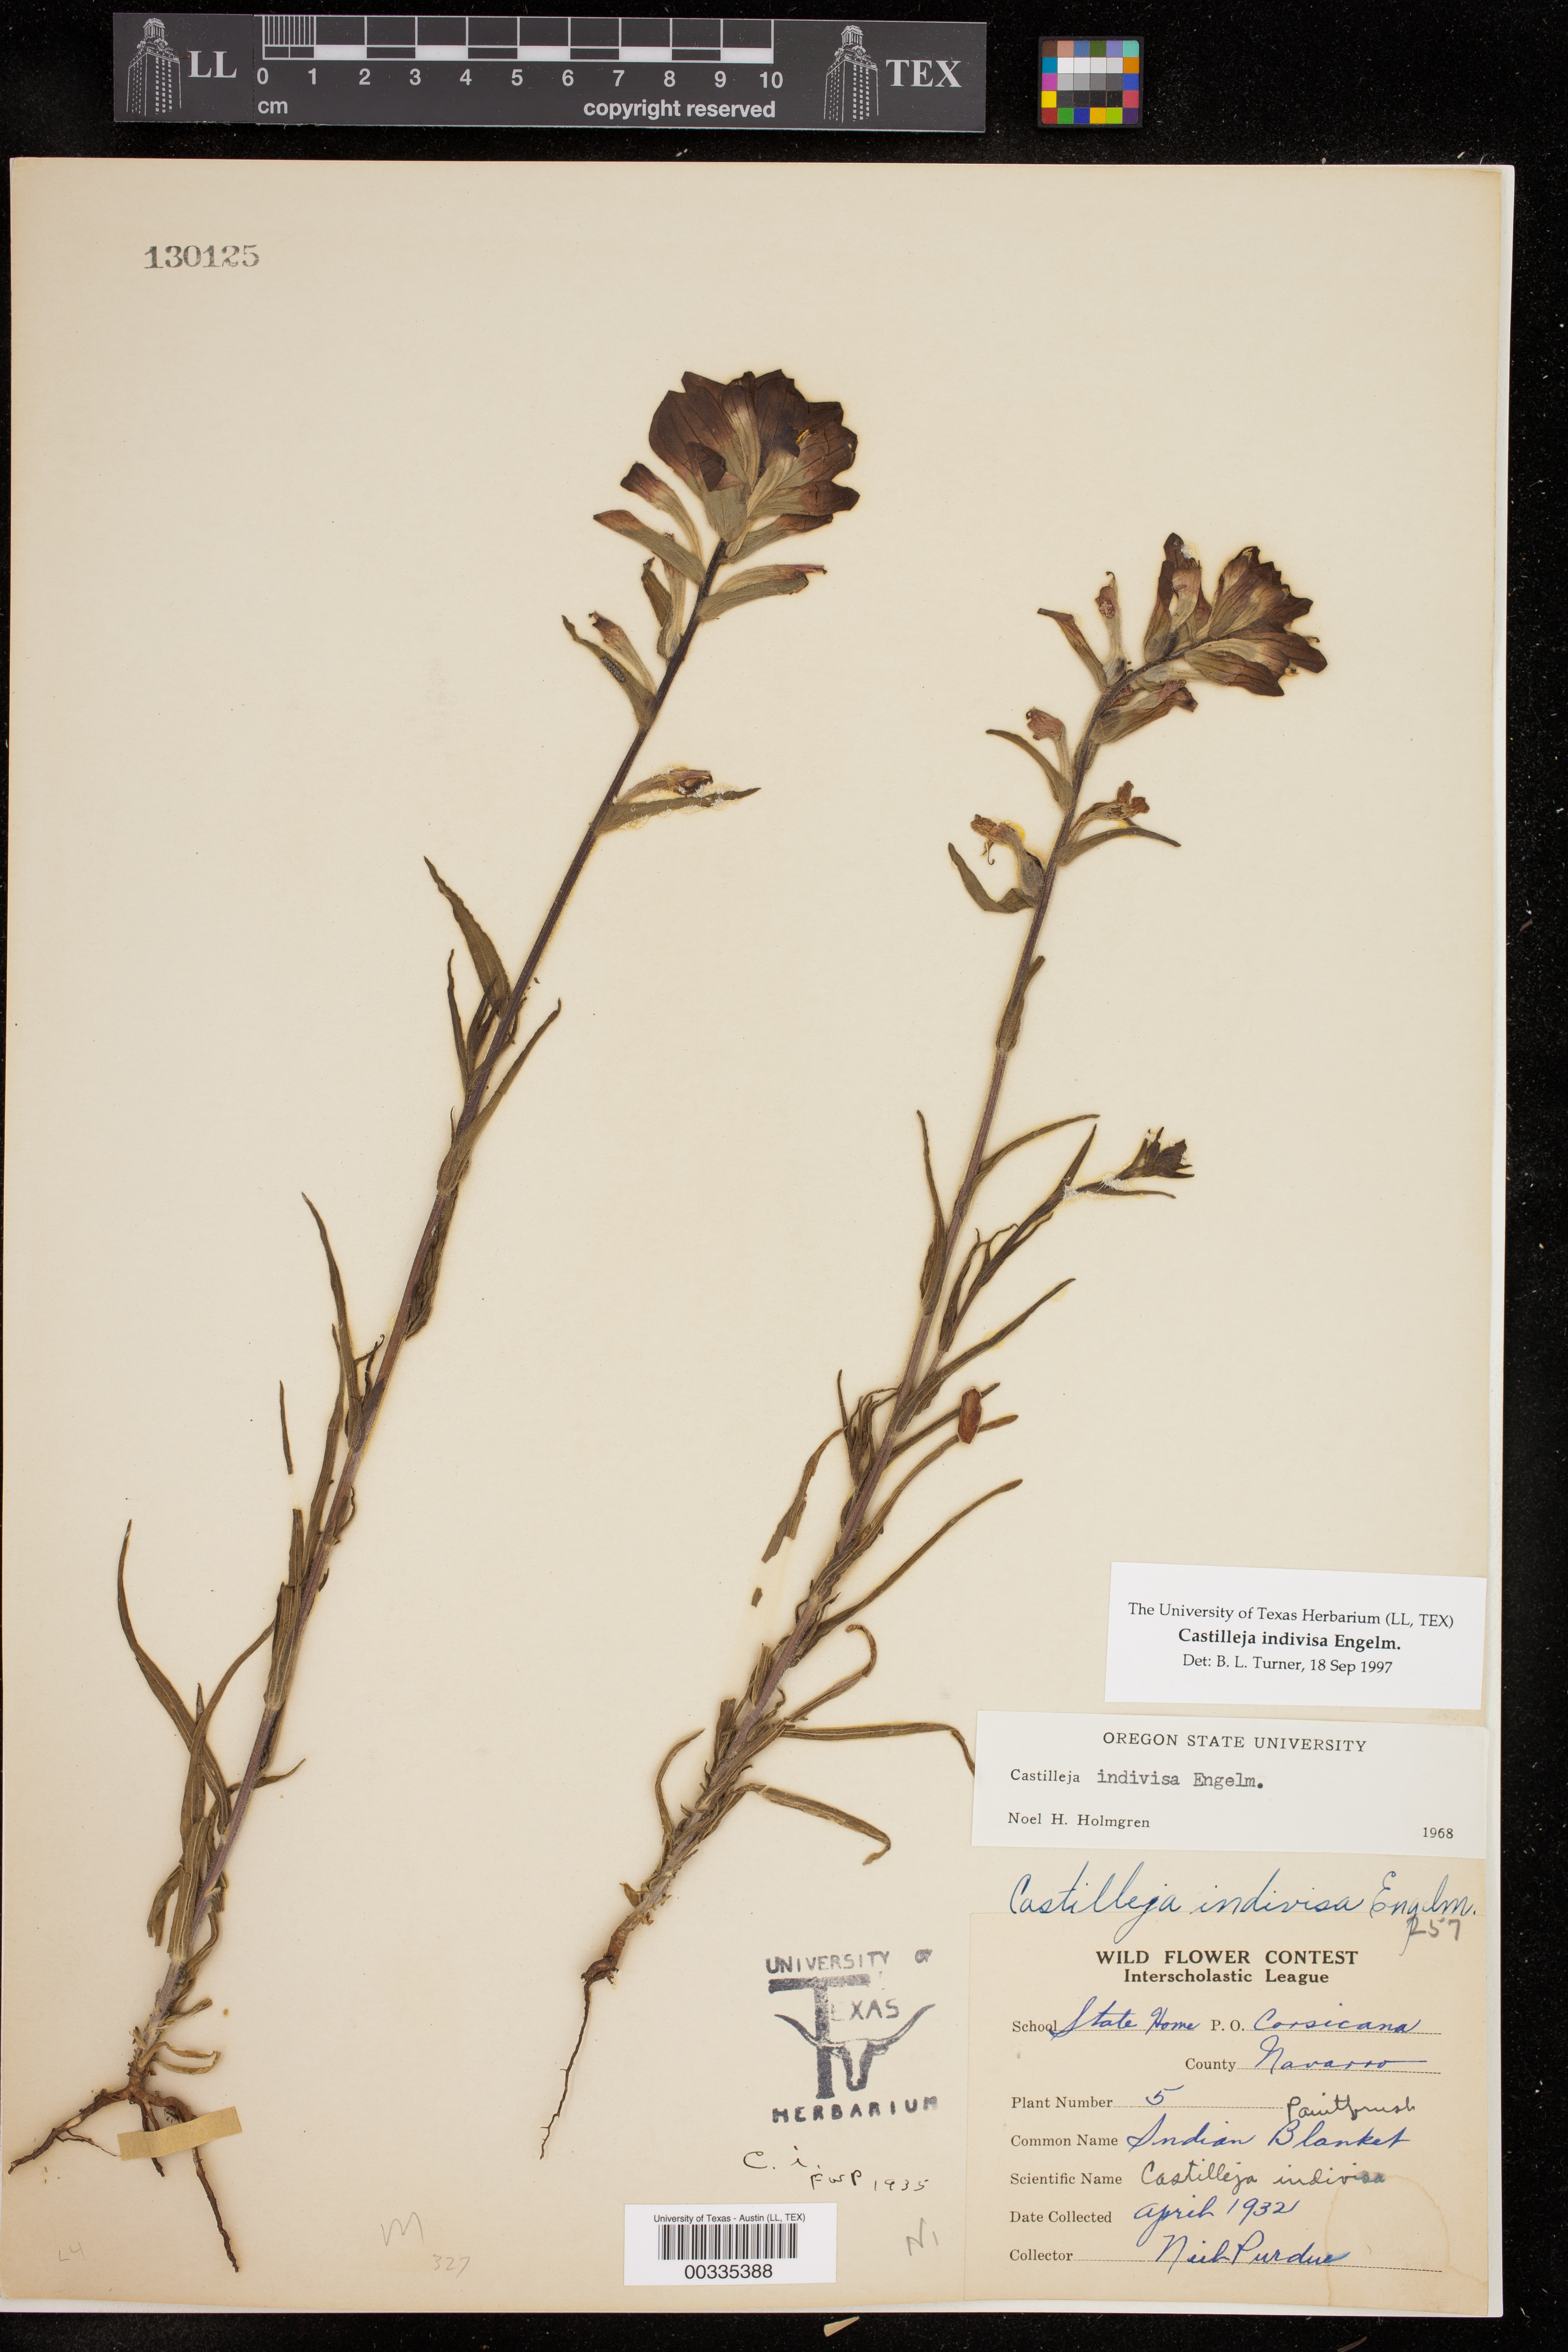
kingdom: Plantae
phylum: Tracheophyta
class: Magnoliopsida
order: Lamiales
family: Orobanchaceae
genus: Castilleja
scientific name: Castilleja indivisa
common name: Texas paintbrush
